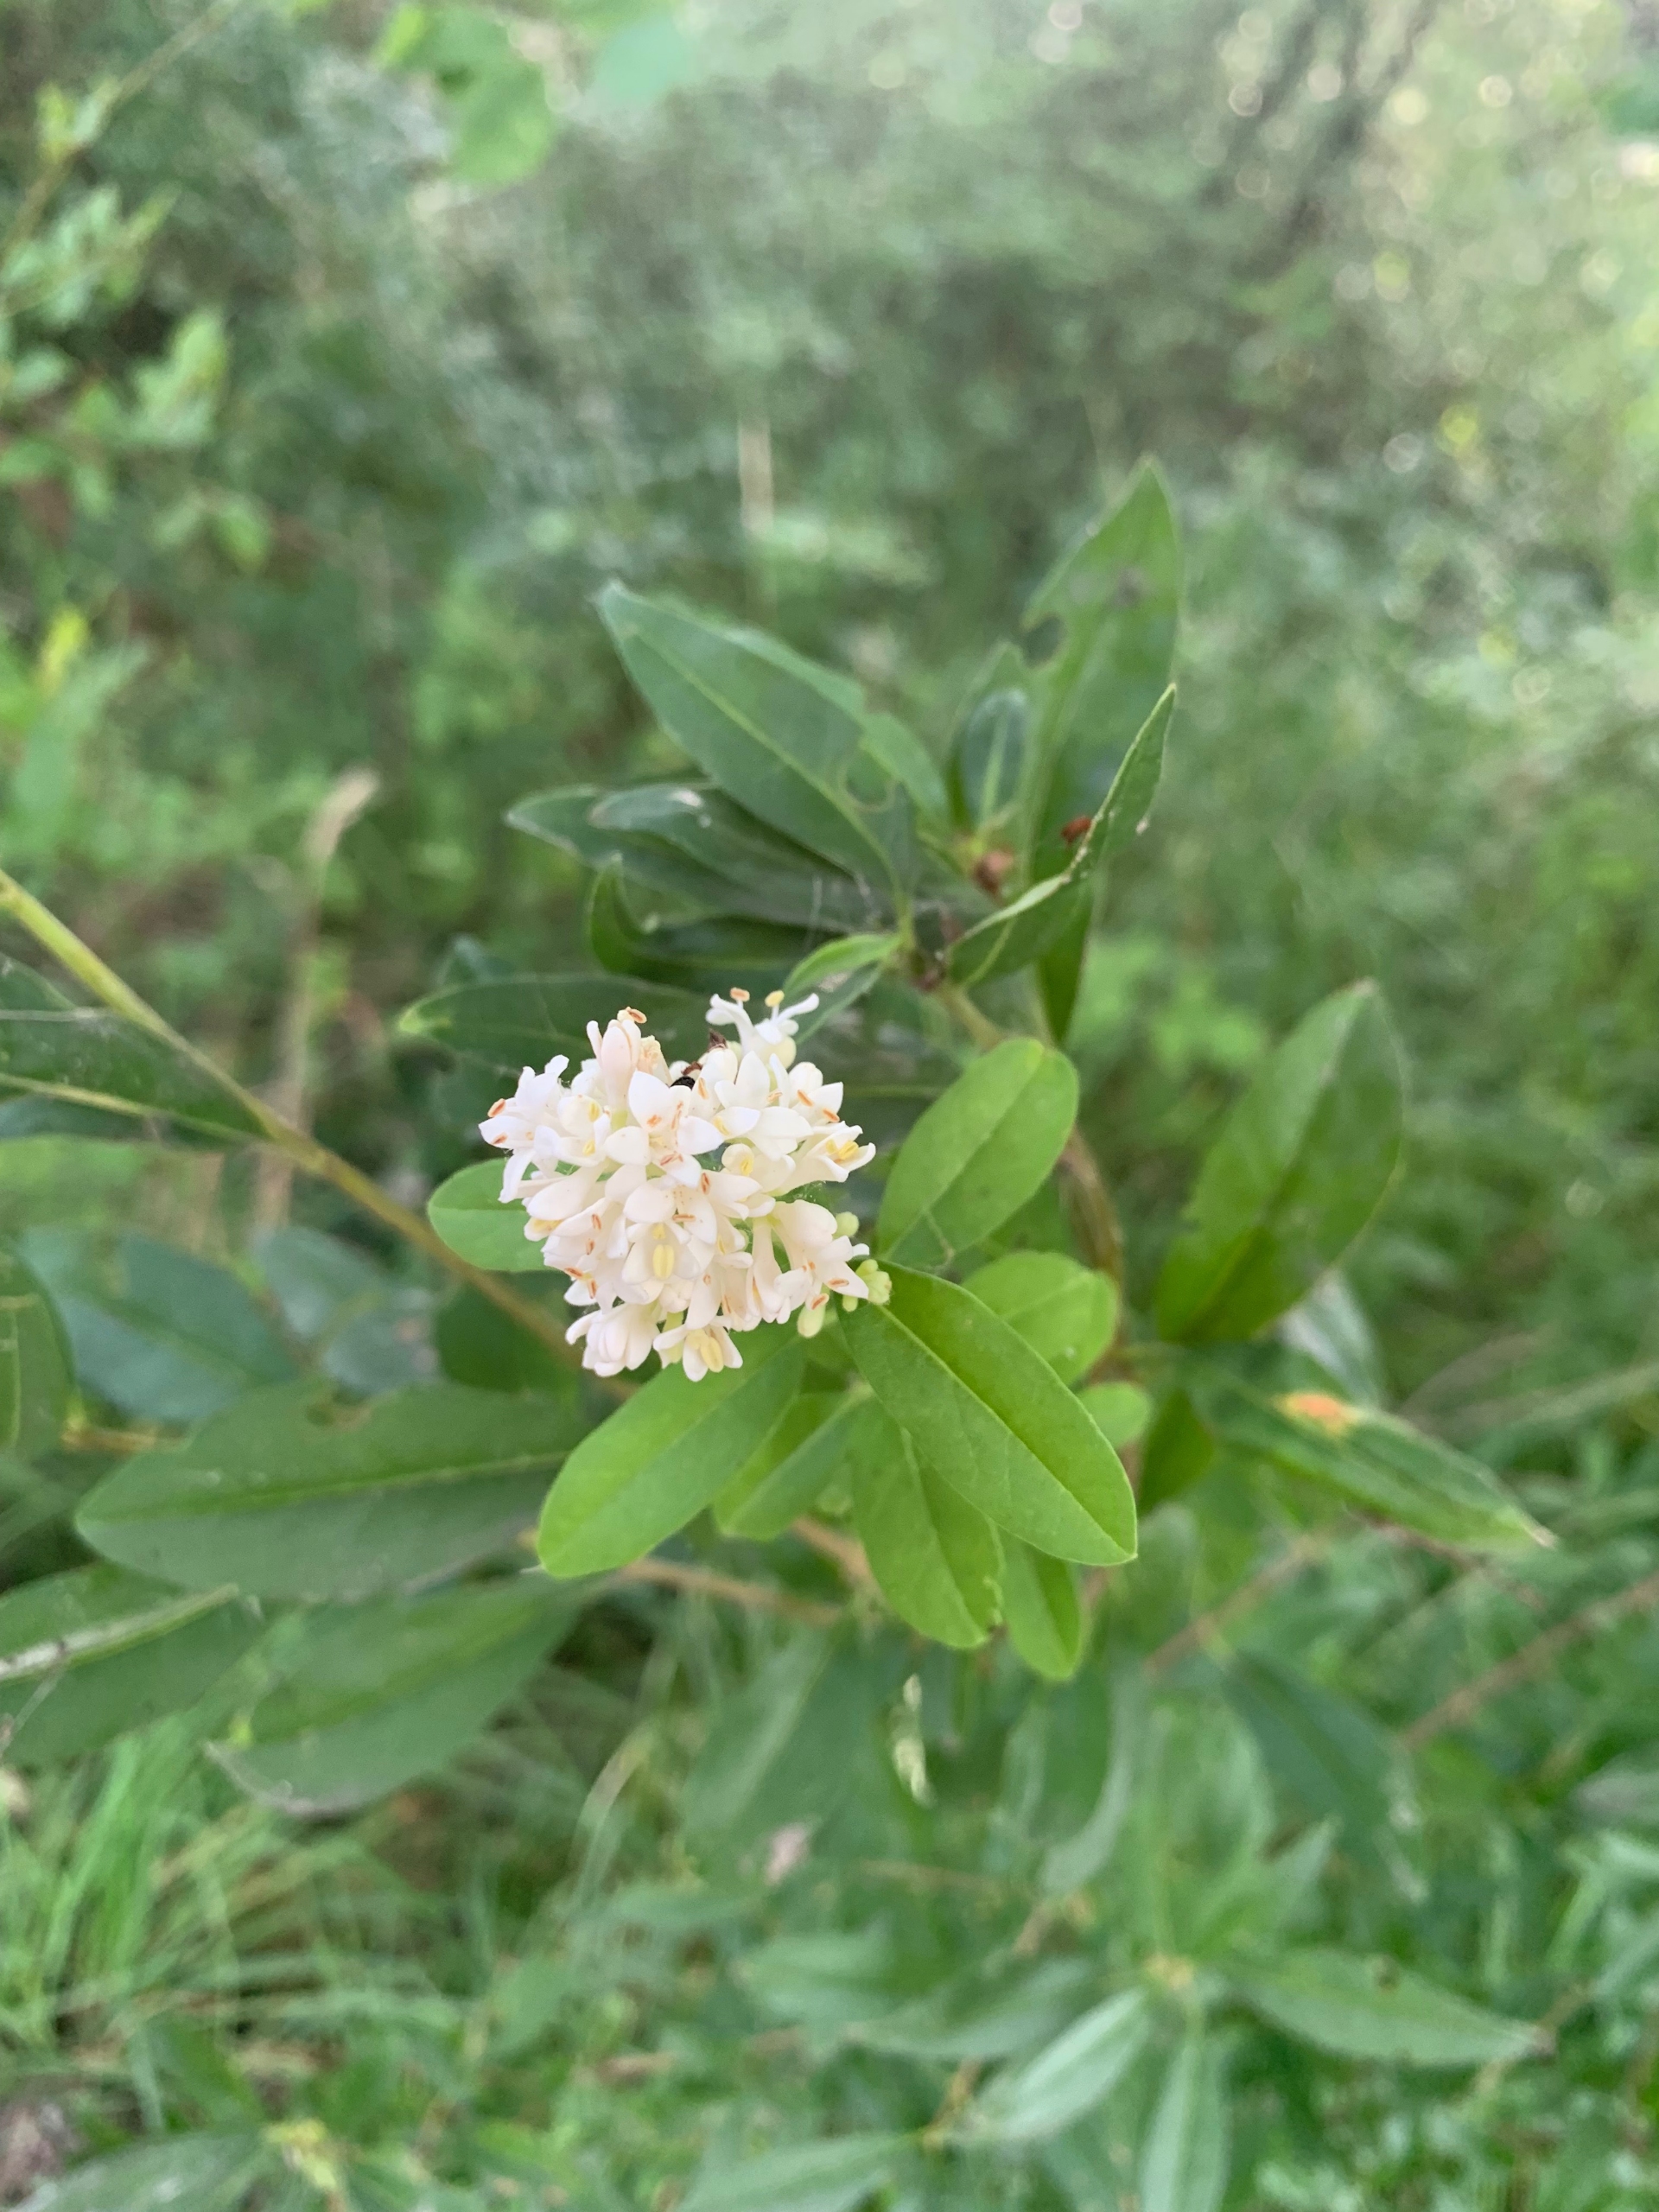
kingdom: Plantae
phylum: Tracheophyta
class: Magnoliopsida
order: Lamiales
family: Oleaceae
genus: Ligustrum
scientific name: Ligustrum vulgare
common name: Liguster
